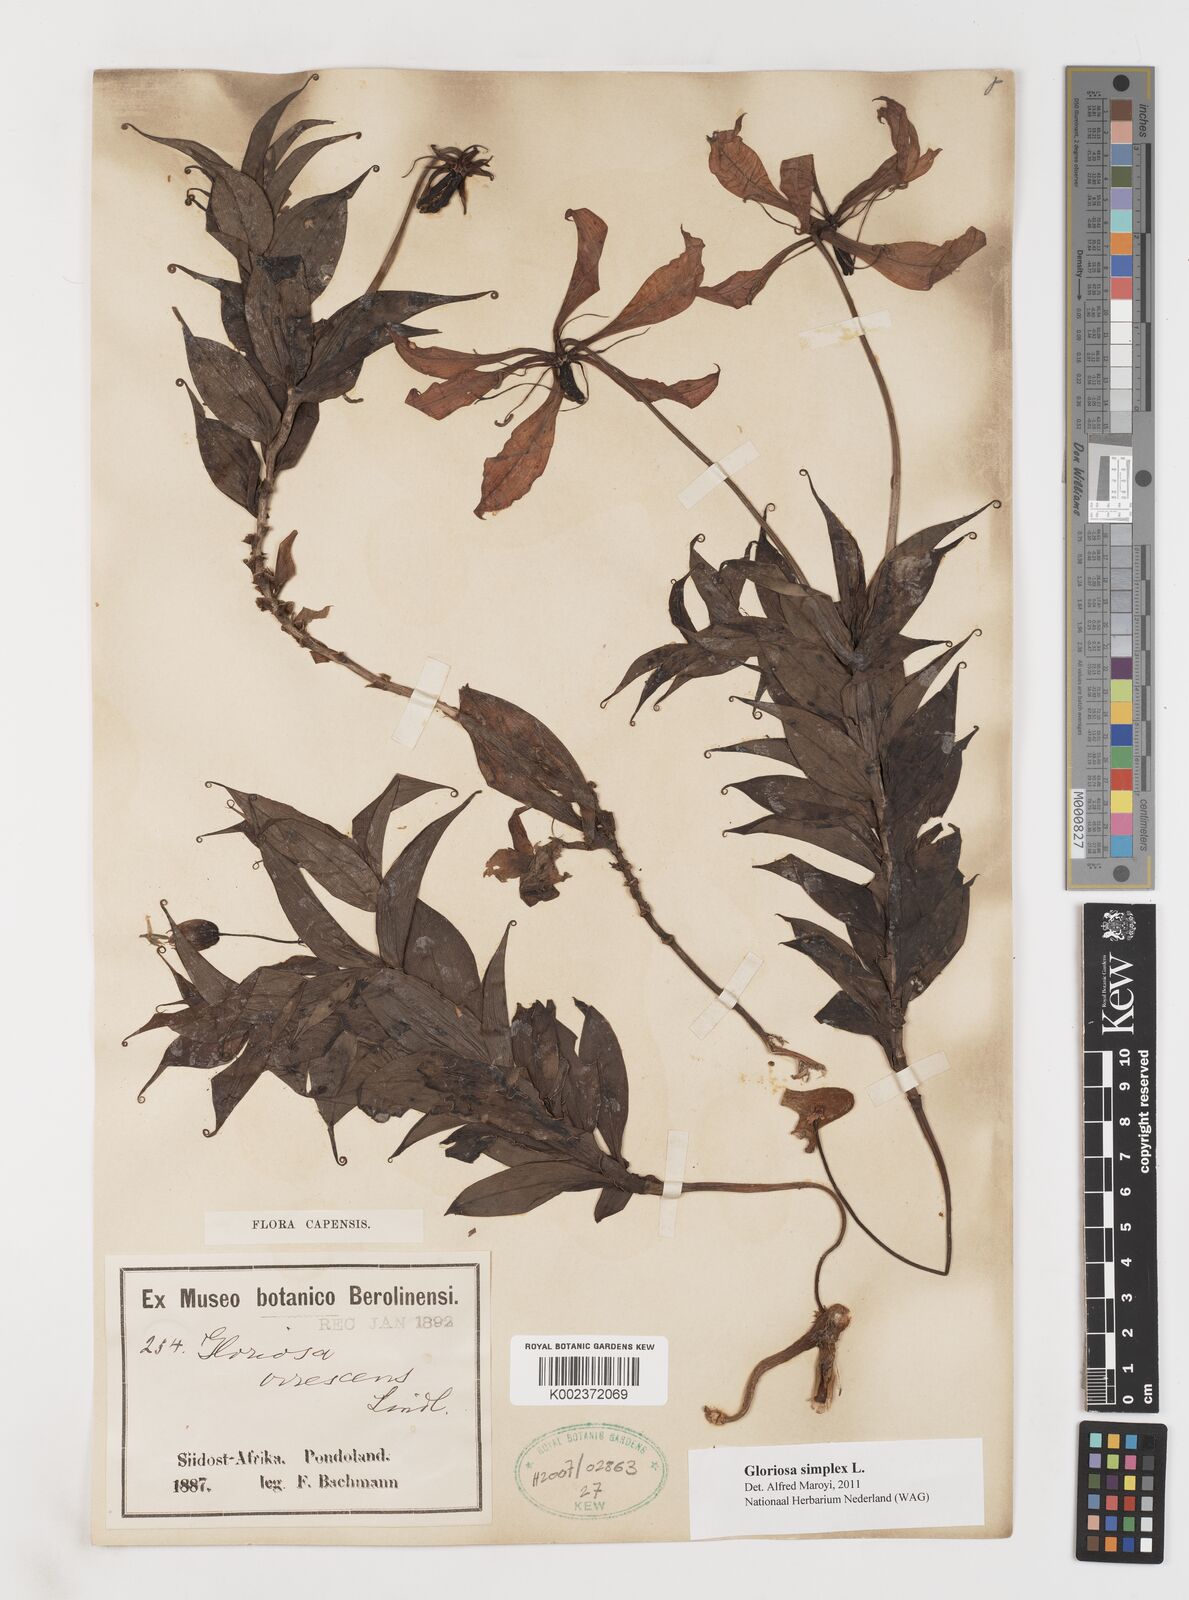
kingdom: Plantae
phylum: Tracheophyta
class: Liliopsida
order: Liliales
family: Colchicaceae
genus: Gloriosa
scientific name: Gloriosa simplex
